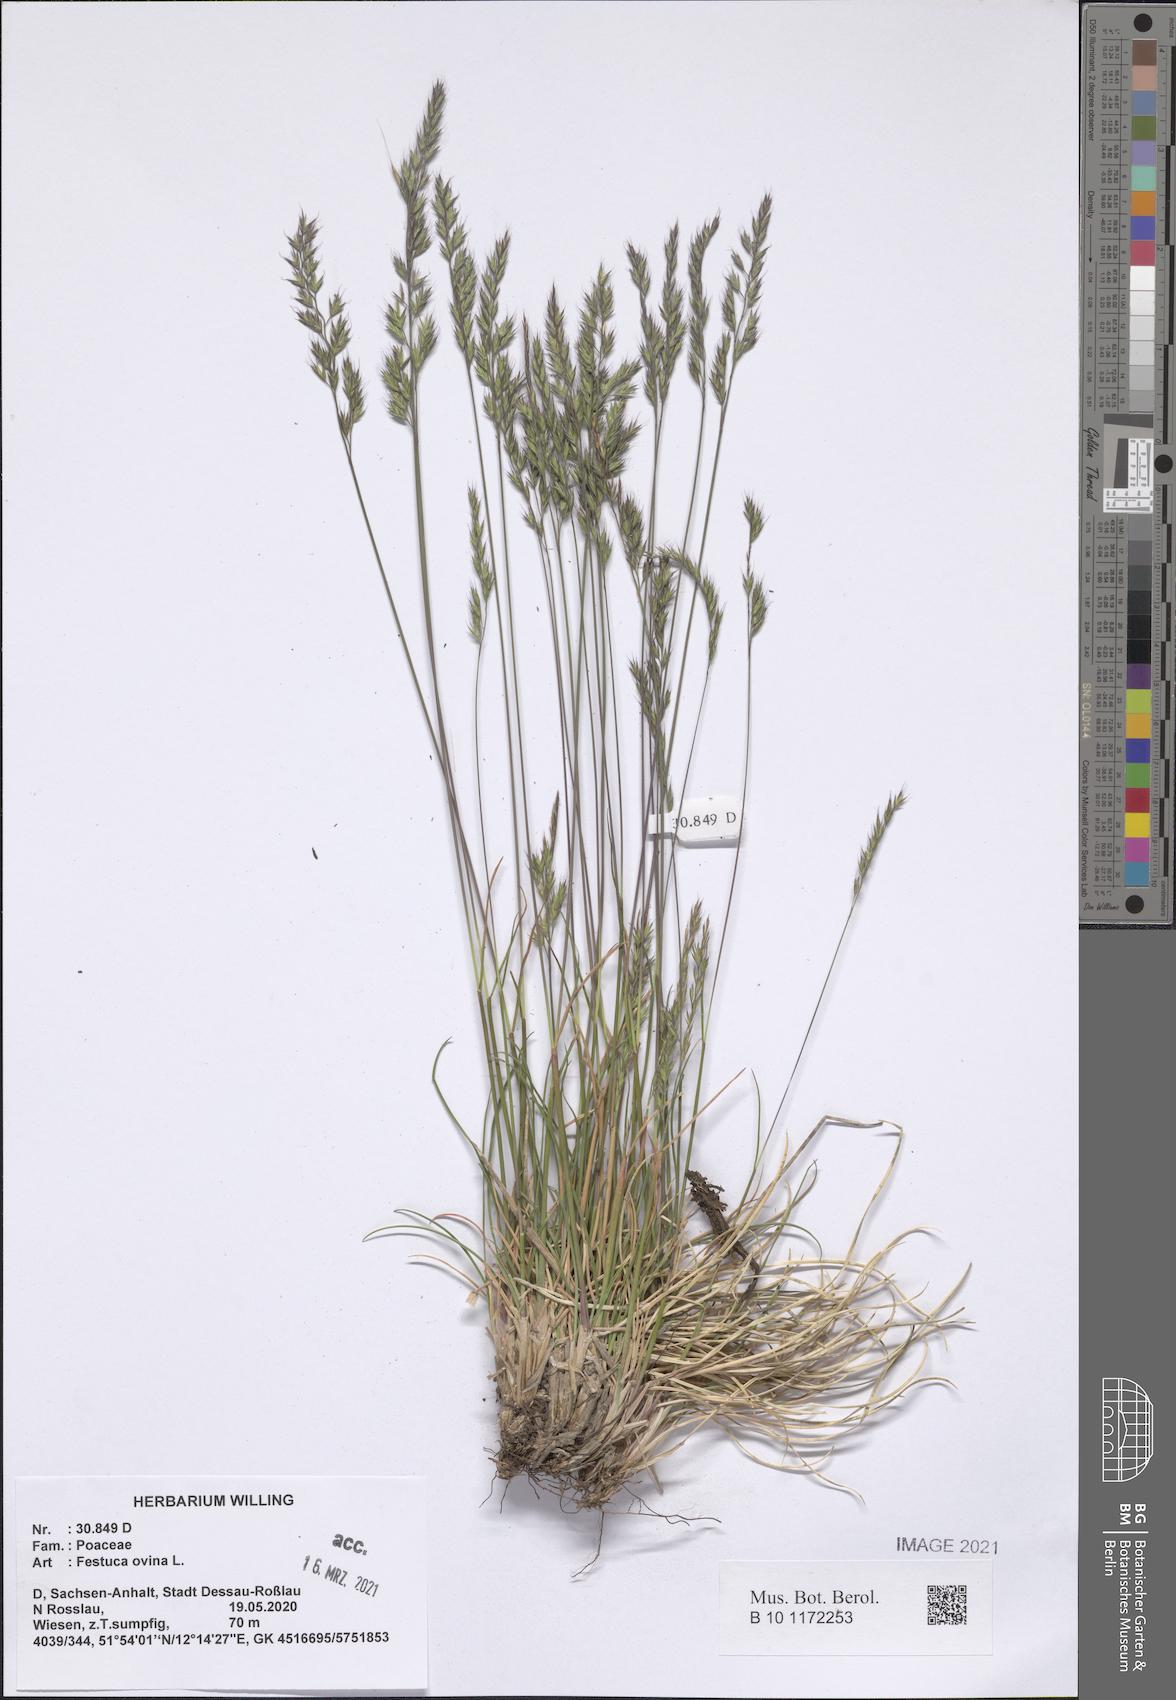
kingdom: Plantae
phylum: Tracheophyta
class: Liliopsida
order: Poales
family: Poaceae
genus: Festuca
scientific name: Festuca ovina
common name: Sheep fescue
